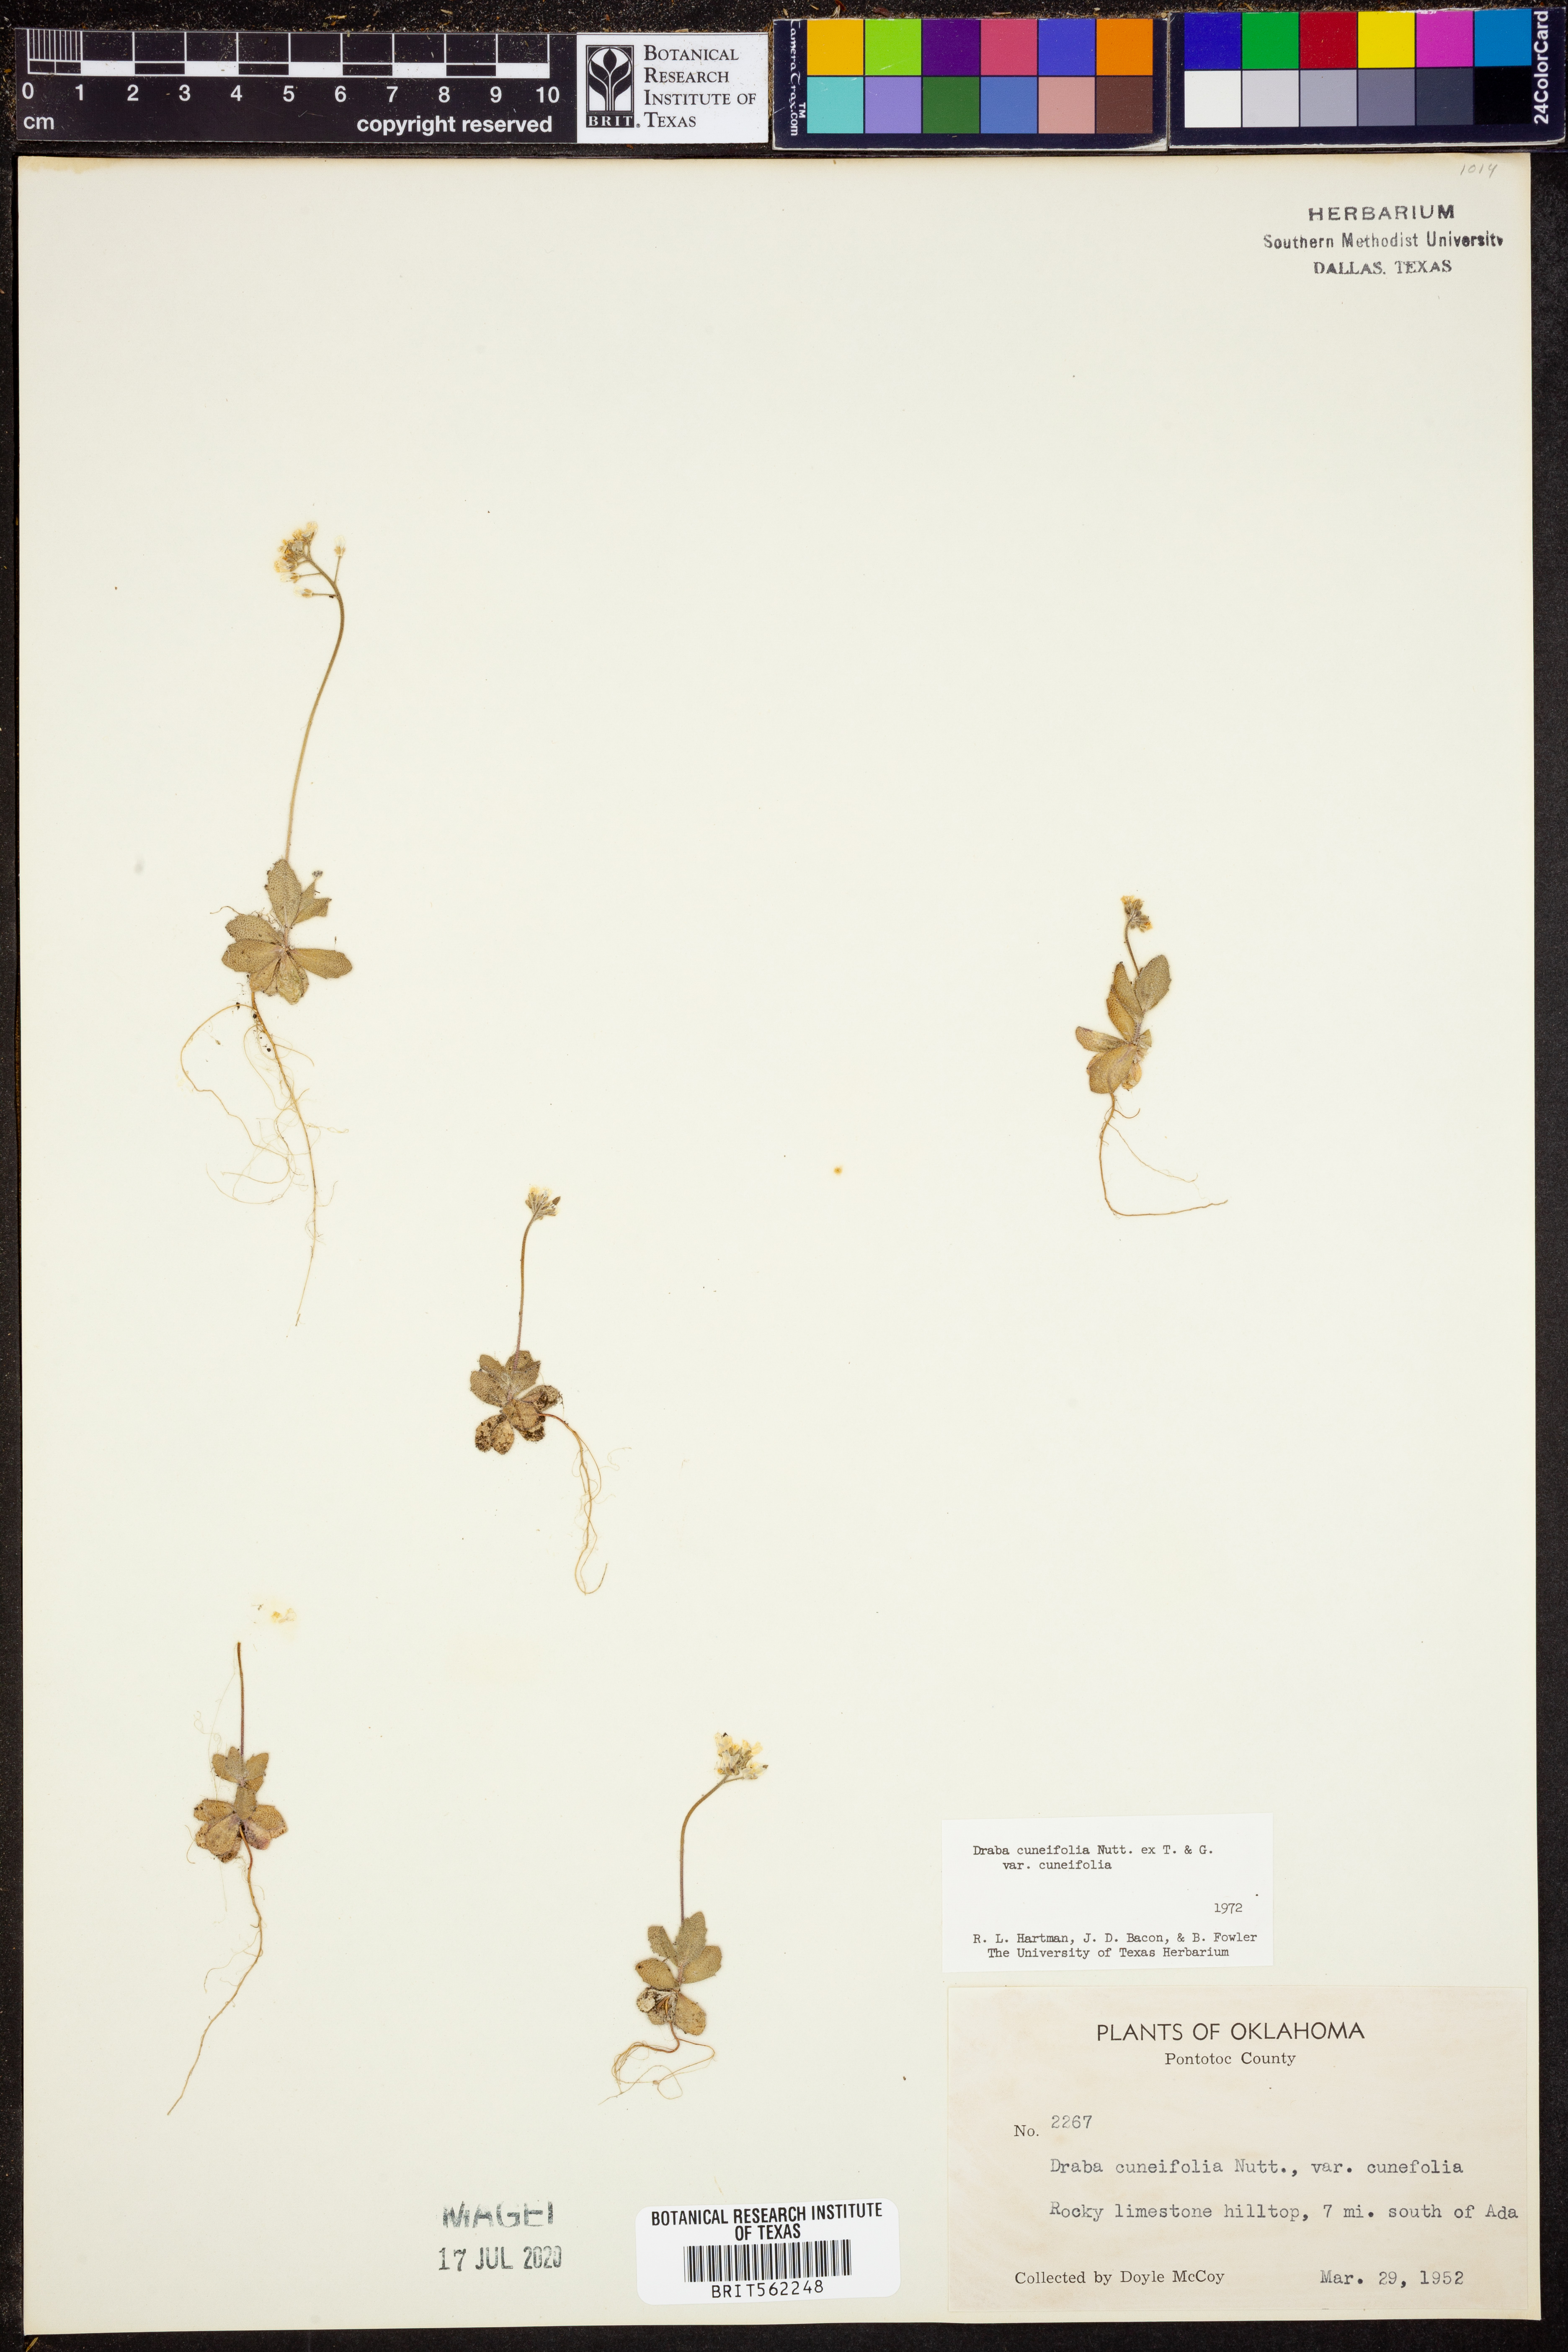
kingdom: Plantae
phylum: Tracheophyta
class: Magnoliopsida
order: Brassicales
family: Brassicaceae
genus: Tomostima
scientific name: Tomostima cuneifolia
